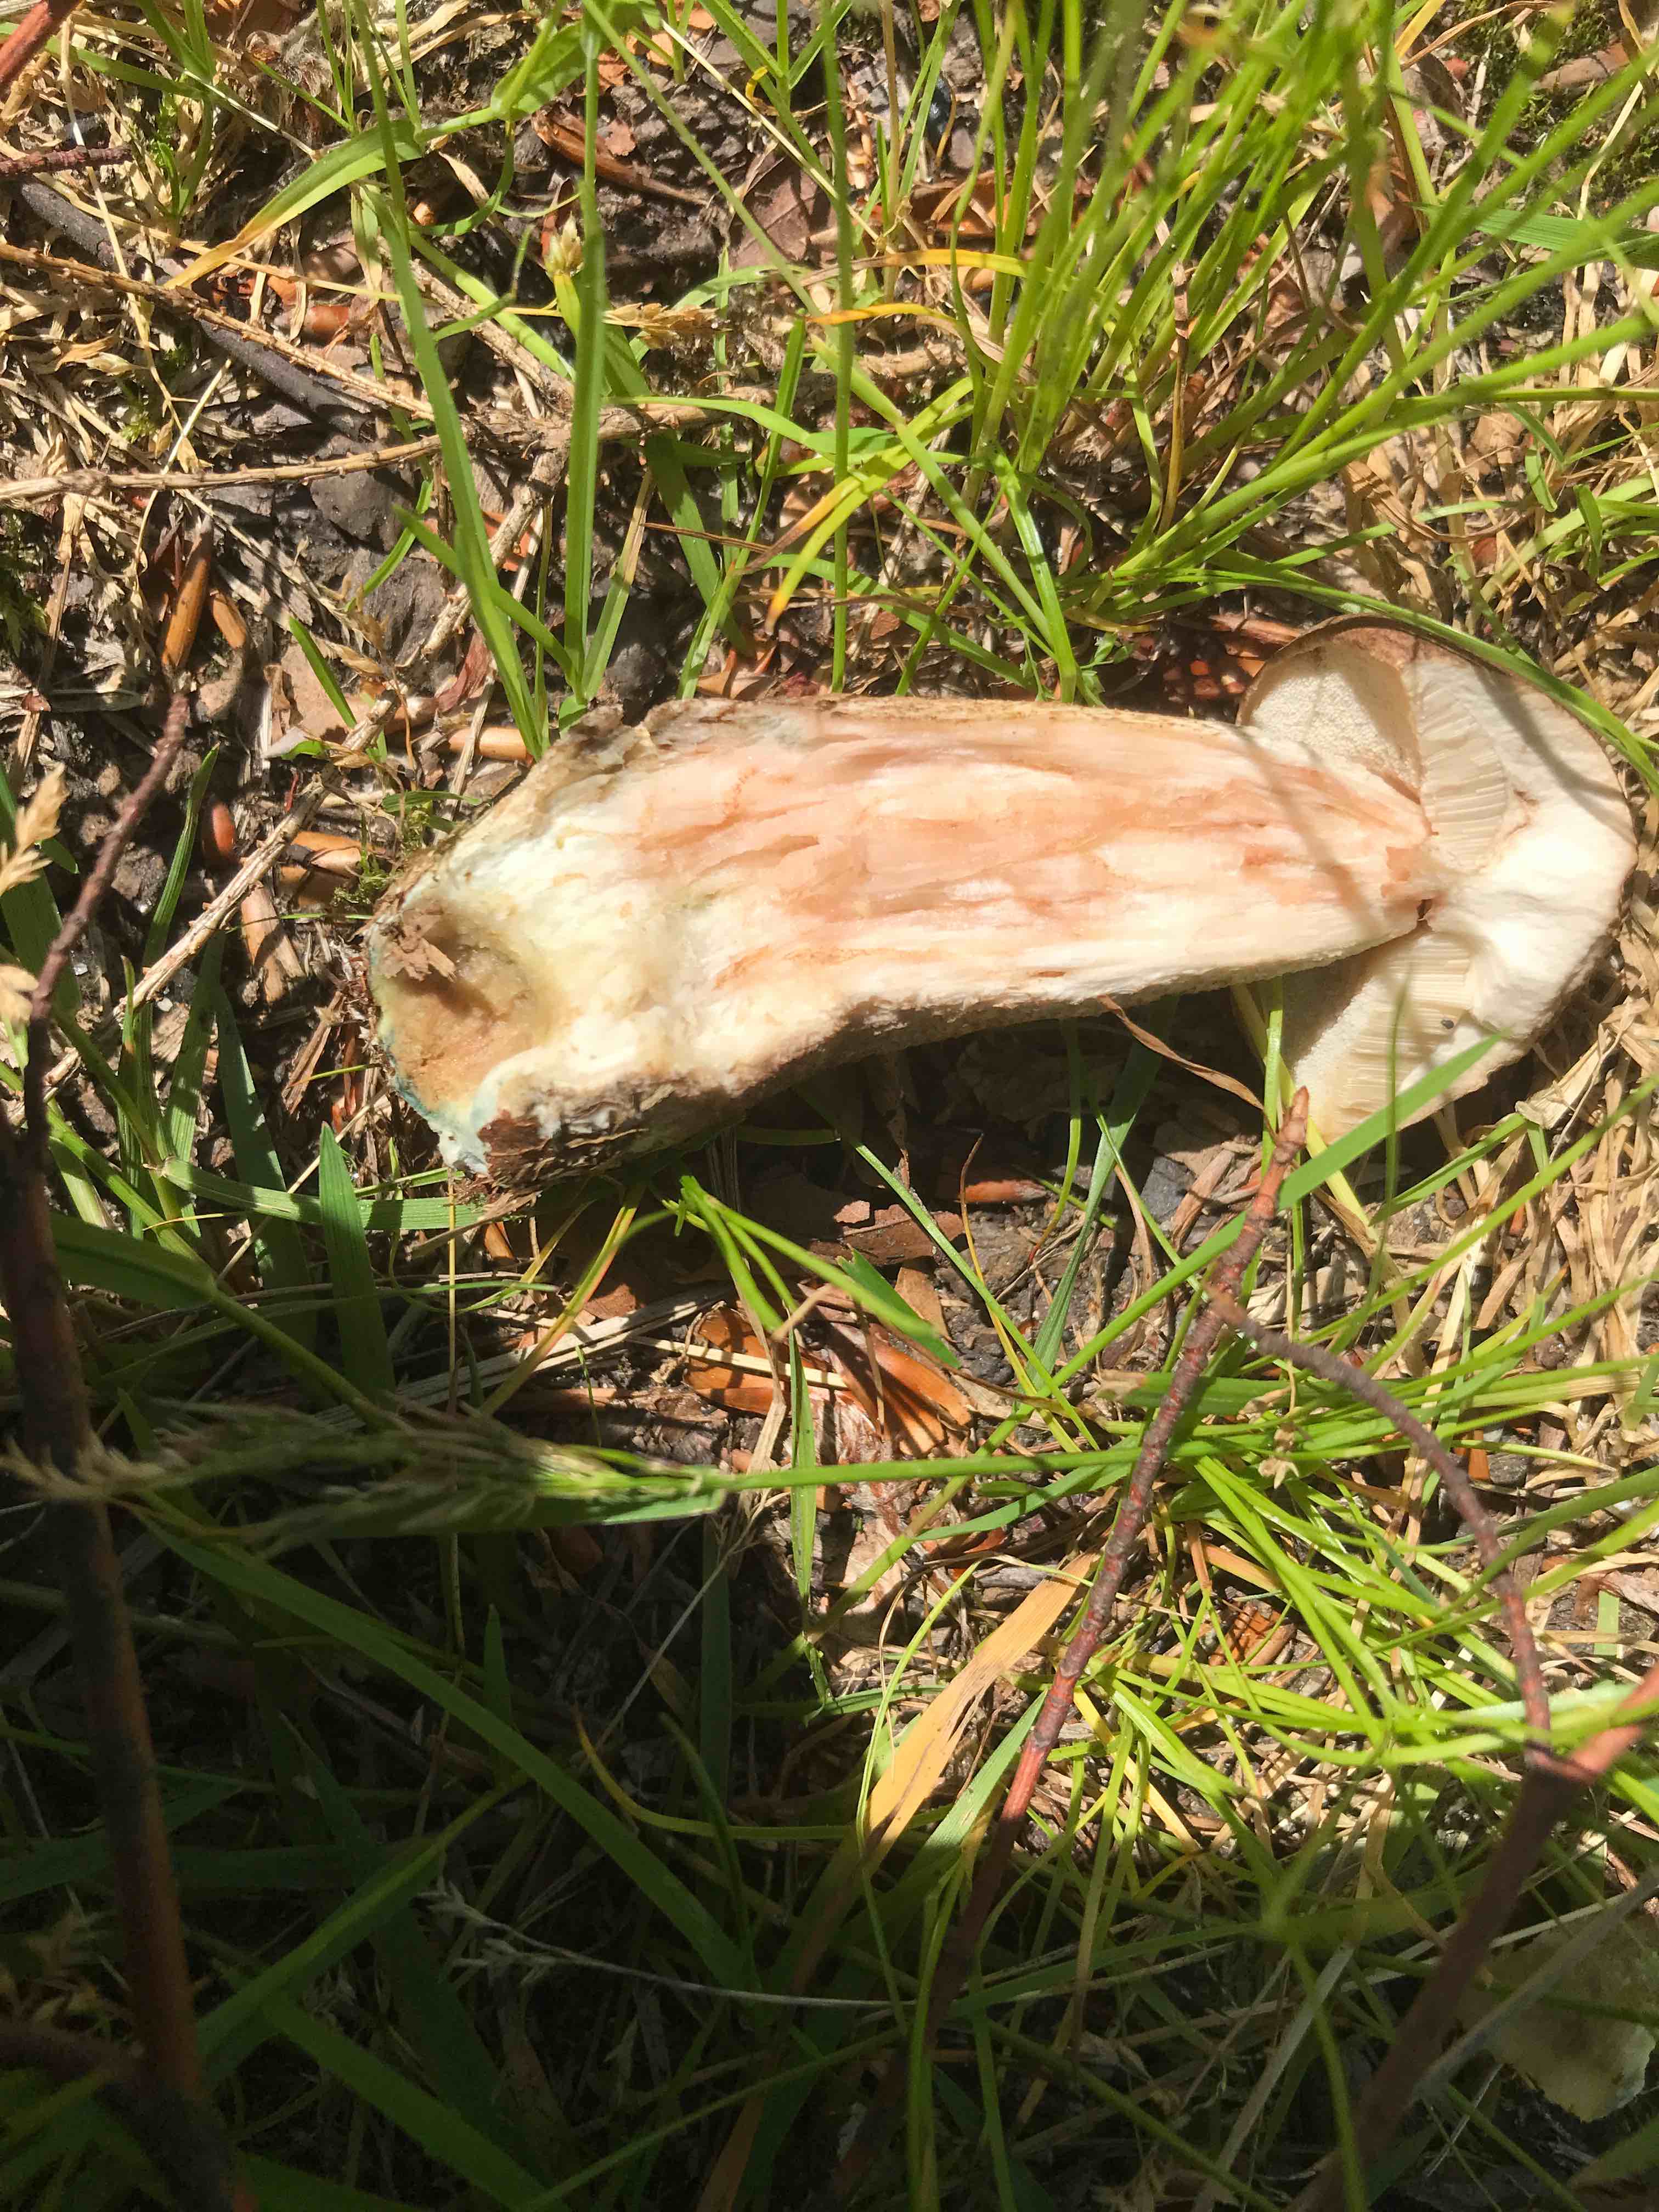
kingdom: Fungi
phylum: Basidiomycota
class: Agaricomycetes
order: Boletales
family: Boletaceae
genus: Leccinum
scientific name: Leccinum cyaneobasileucum
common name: almindelig skælrørhat
